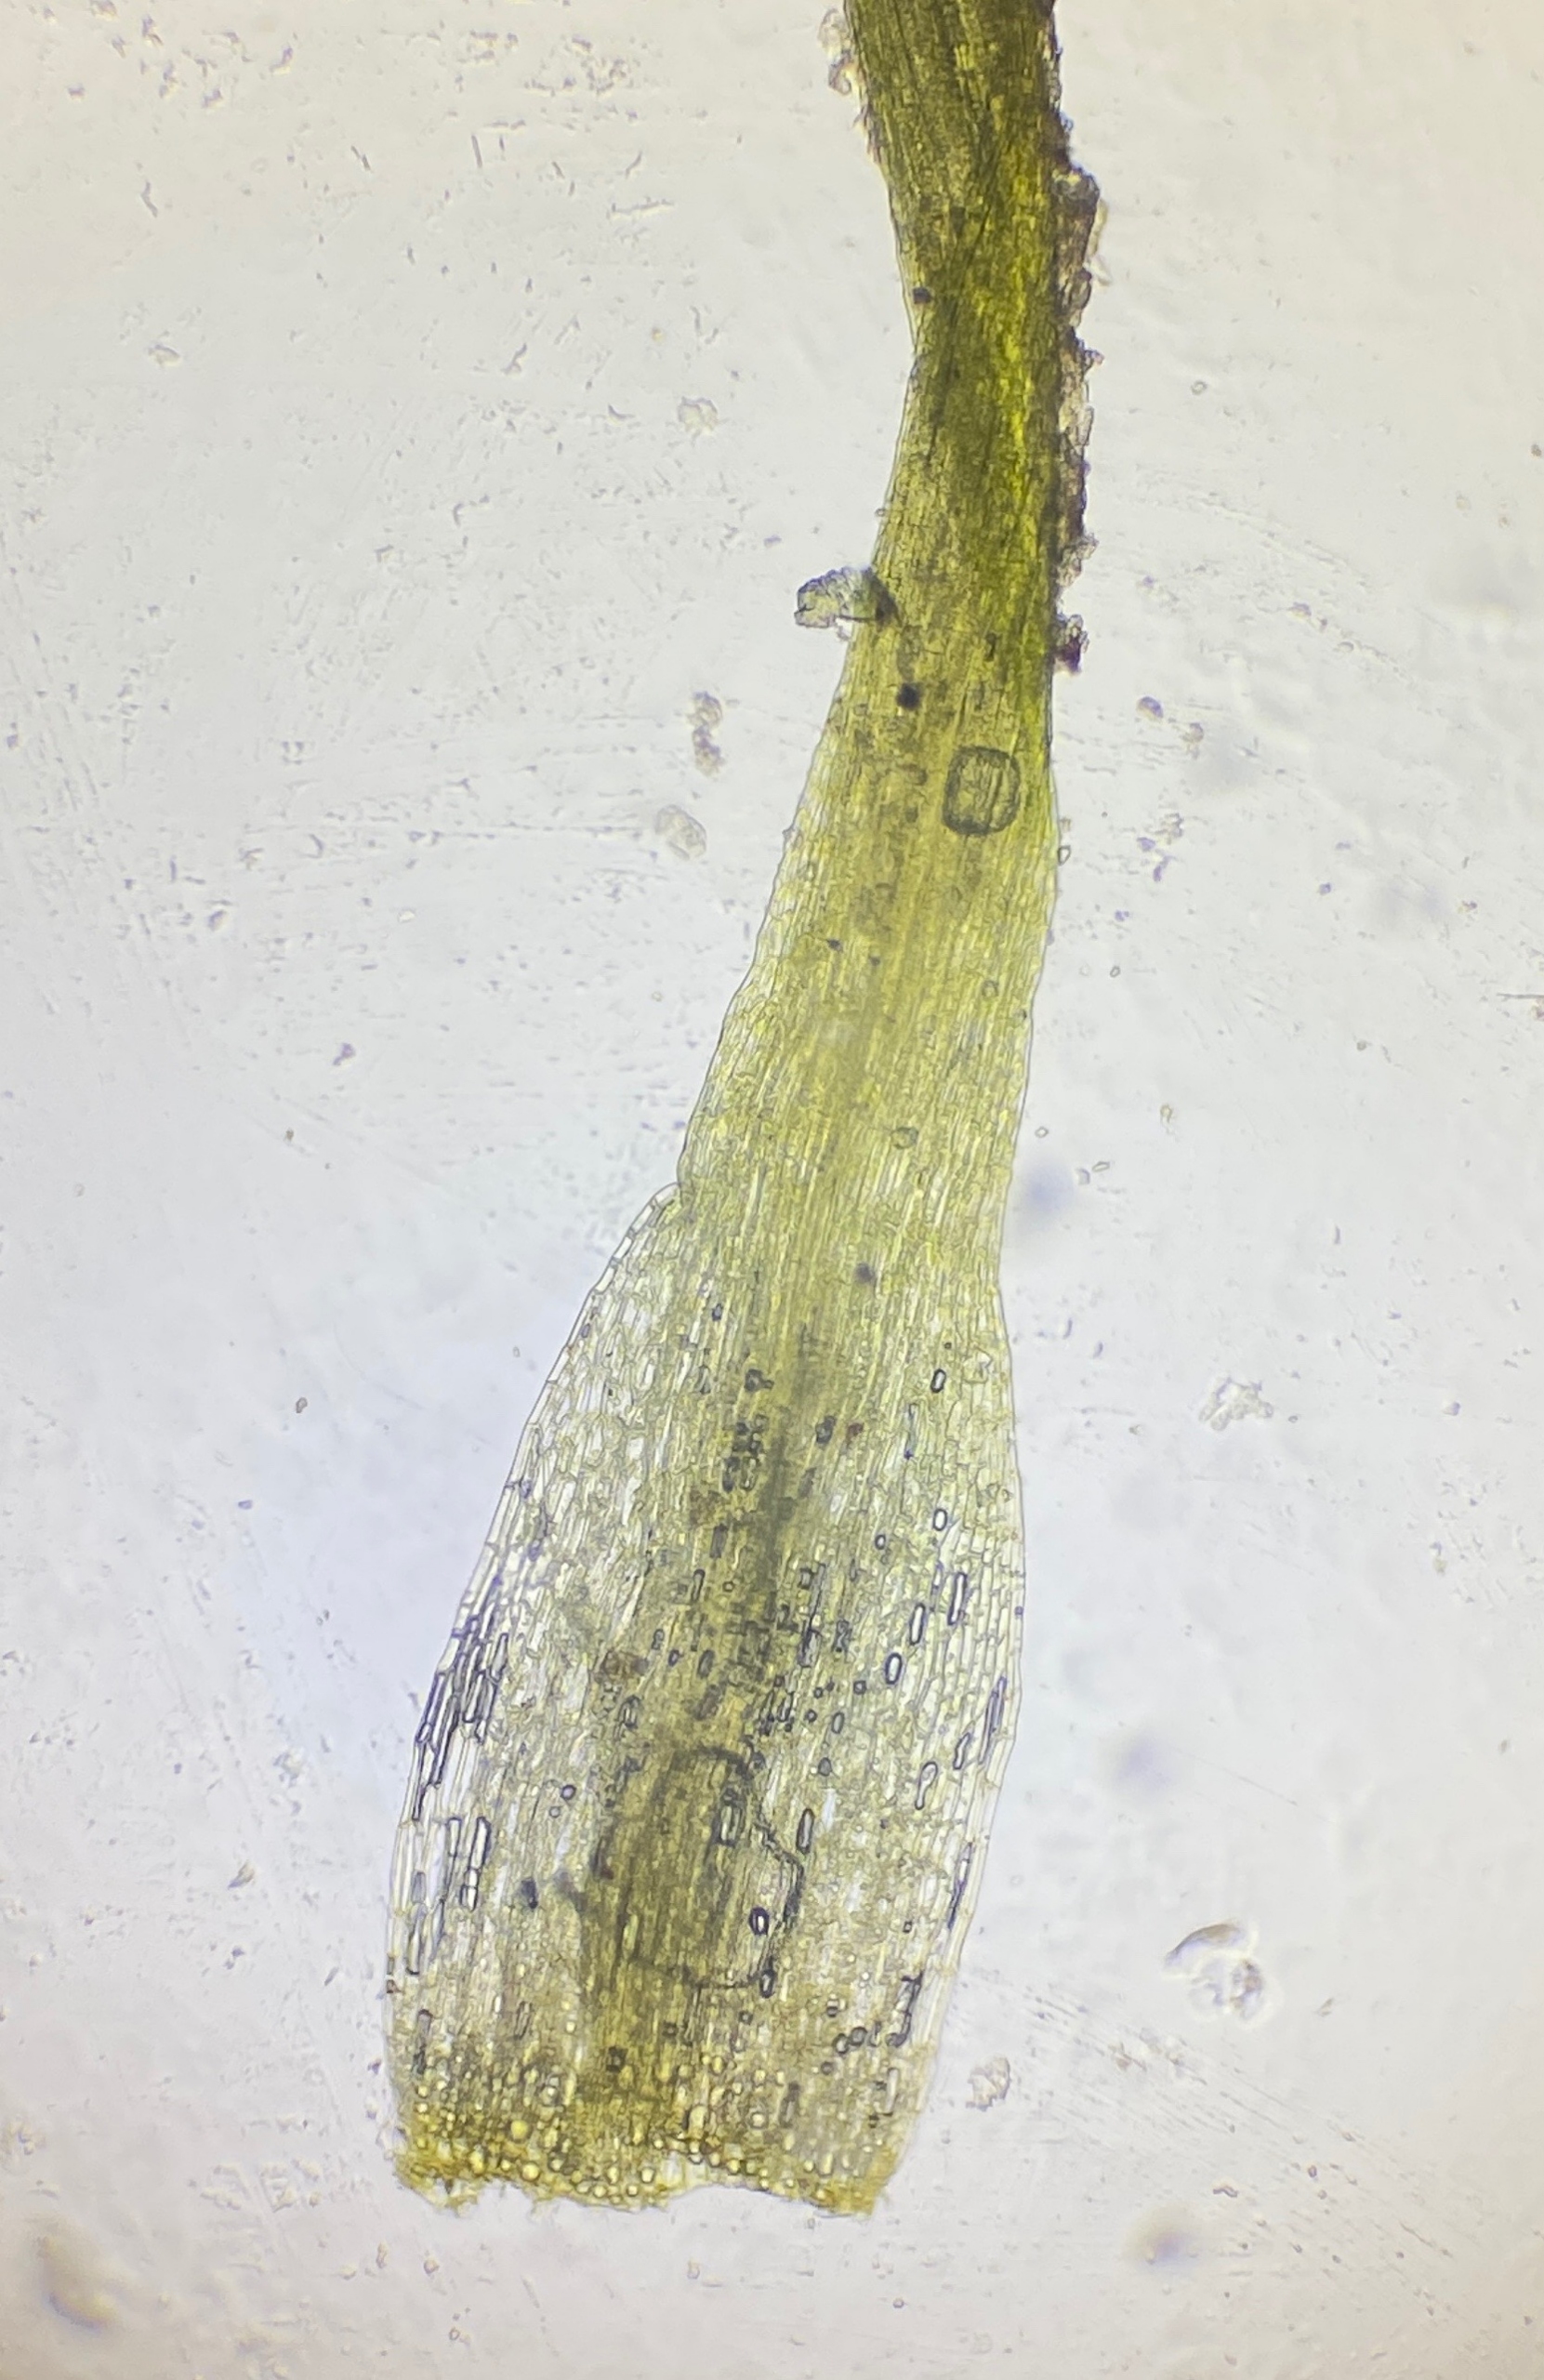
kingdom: Plantae
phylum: Bryophyta
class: Bryopsida
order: Dicranales
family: Ditrichaceae
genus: Pleuridium
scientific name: Pleuridium subulatum
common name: Kortstilket sylbladsmos
